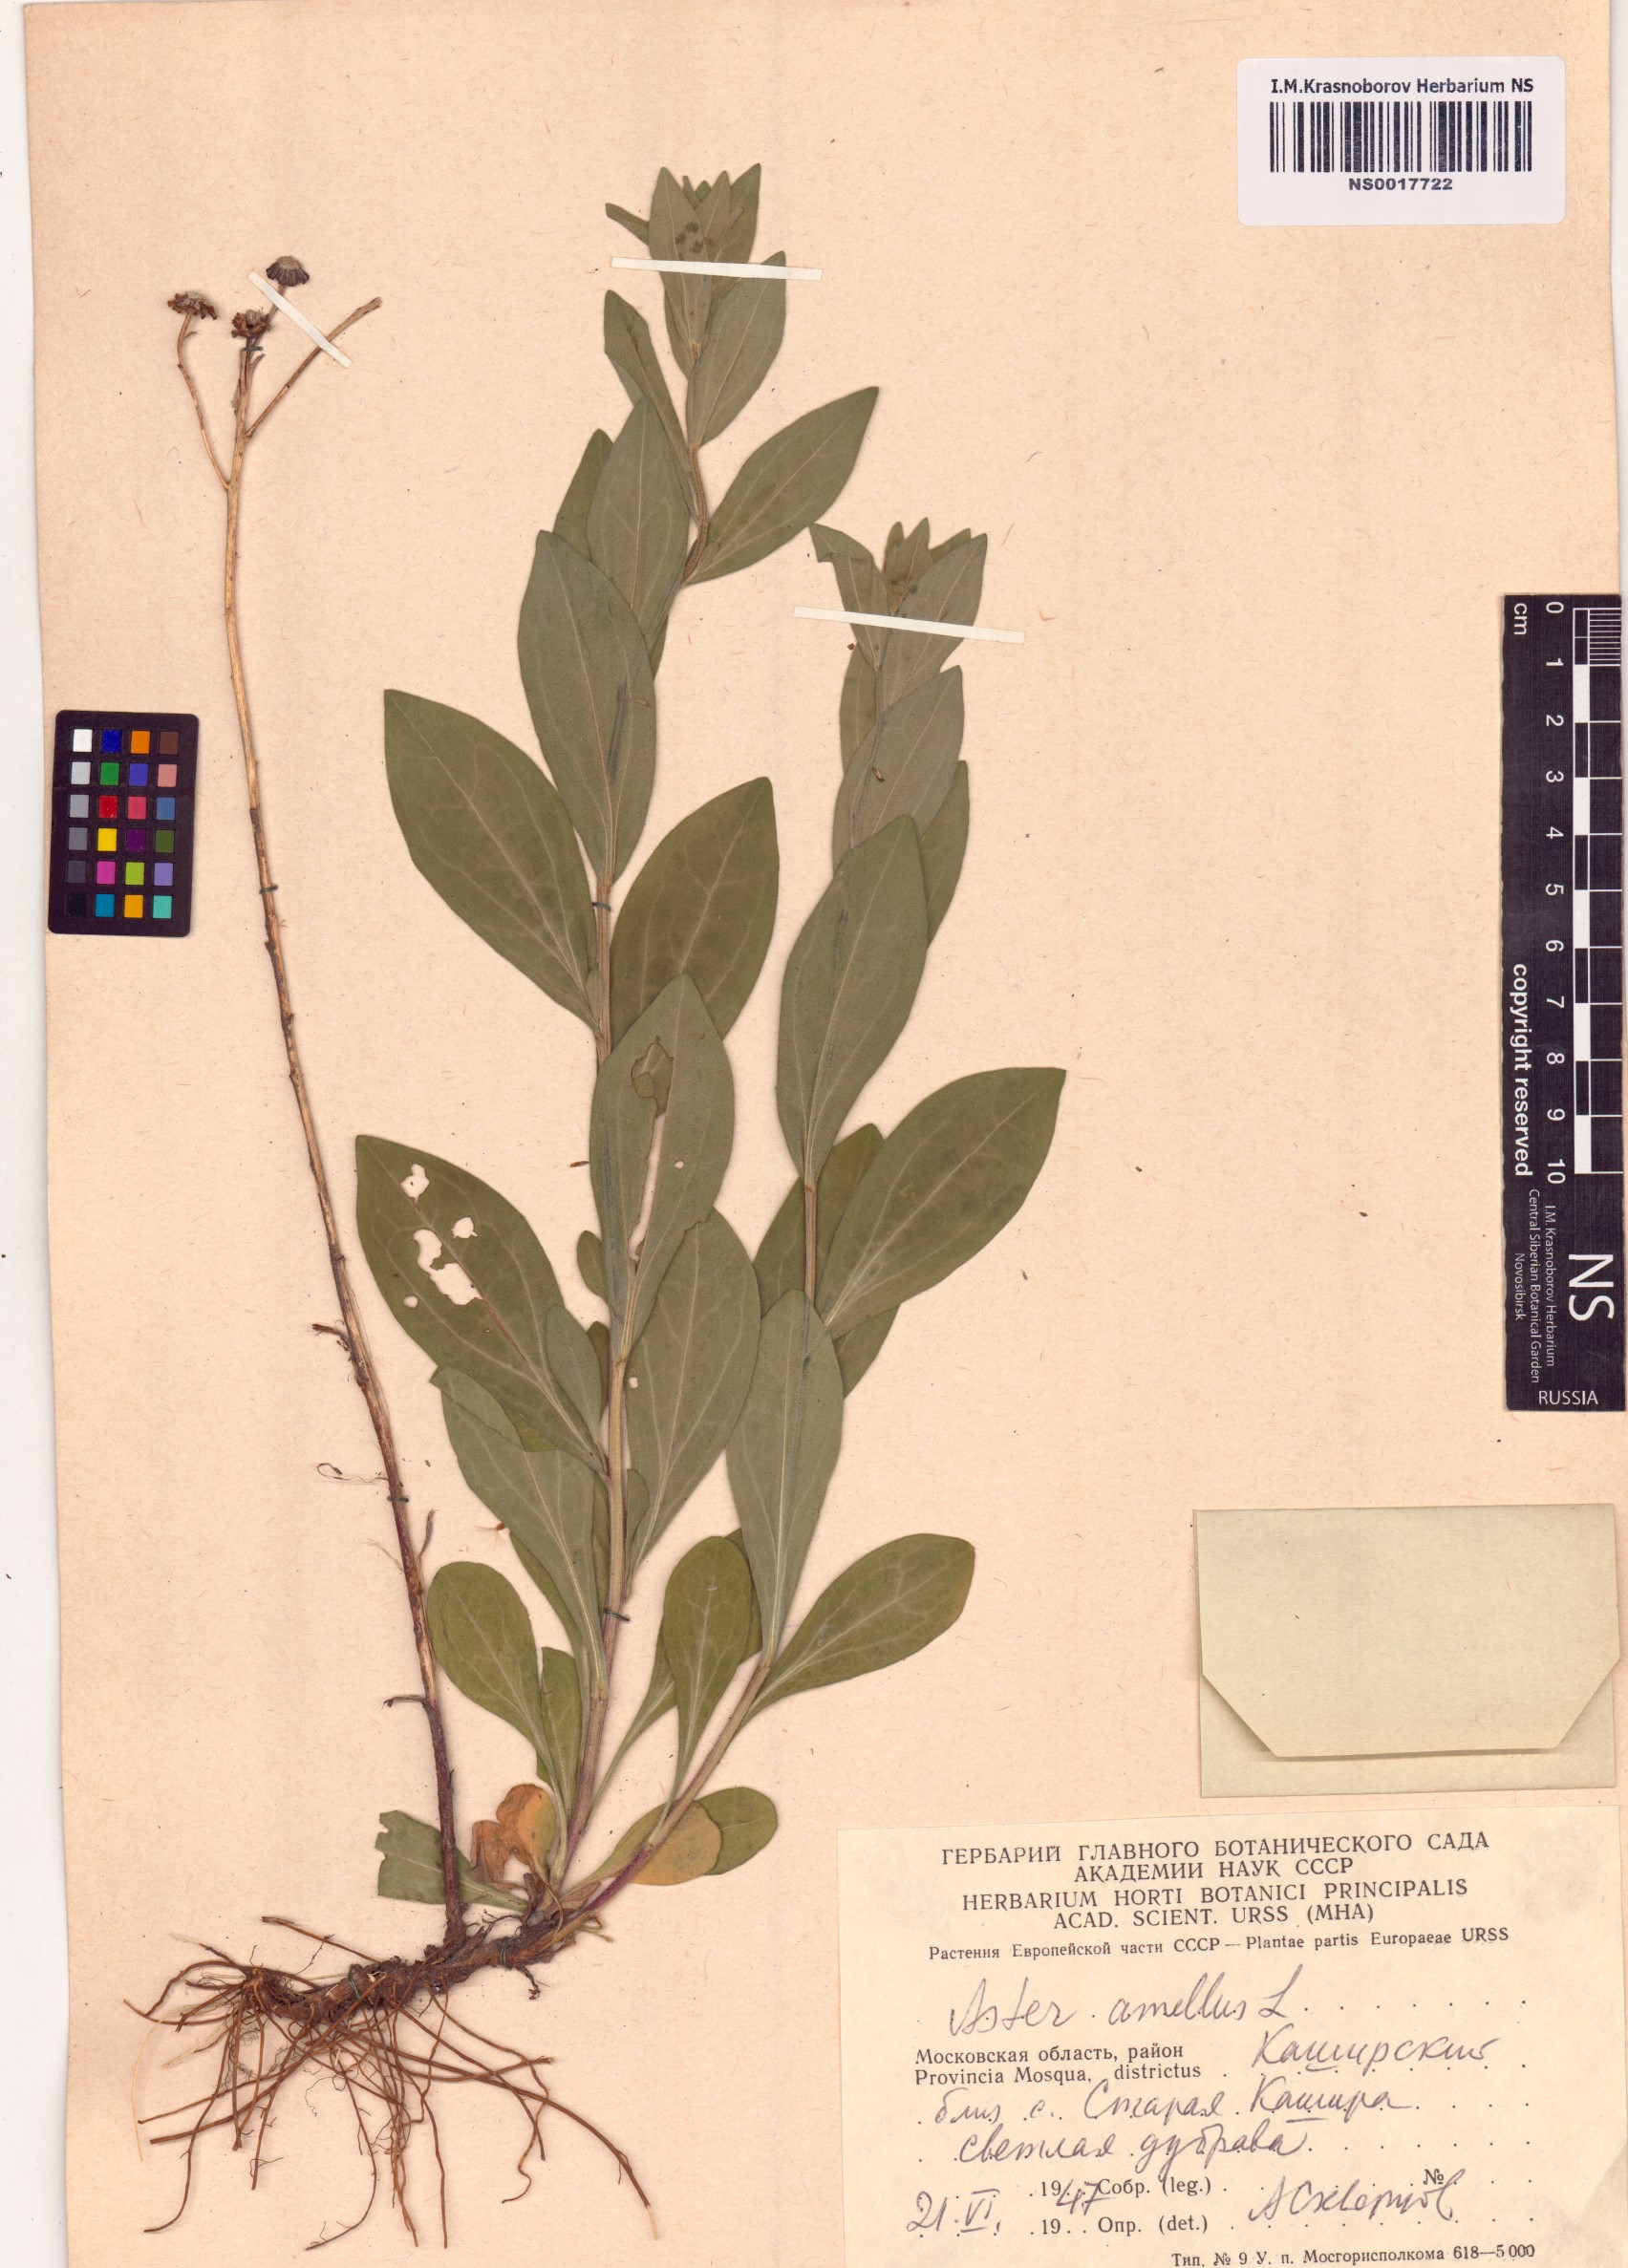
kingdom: Plantae
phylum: Tracheophyta
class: Magnoliopsida
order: Asterales
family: Asteraceae
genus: Aster
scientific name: Aster amellus
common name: European michaelmas daisy
